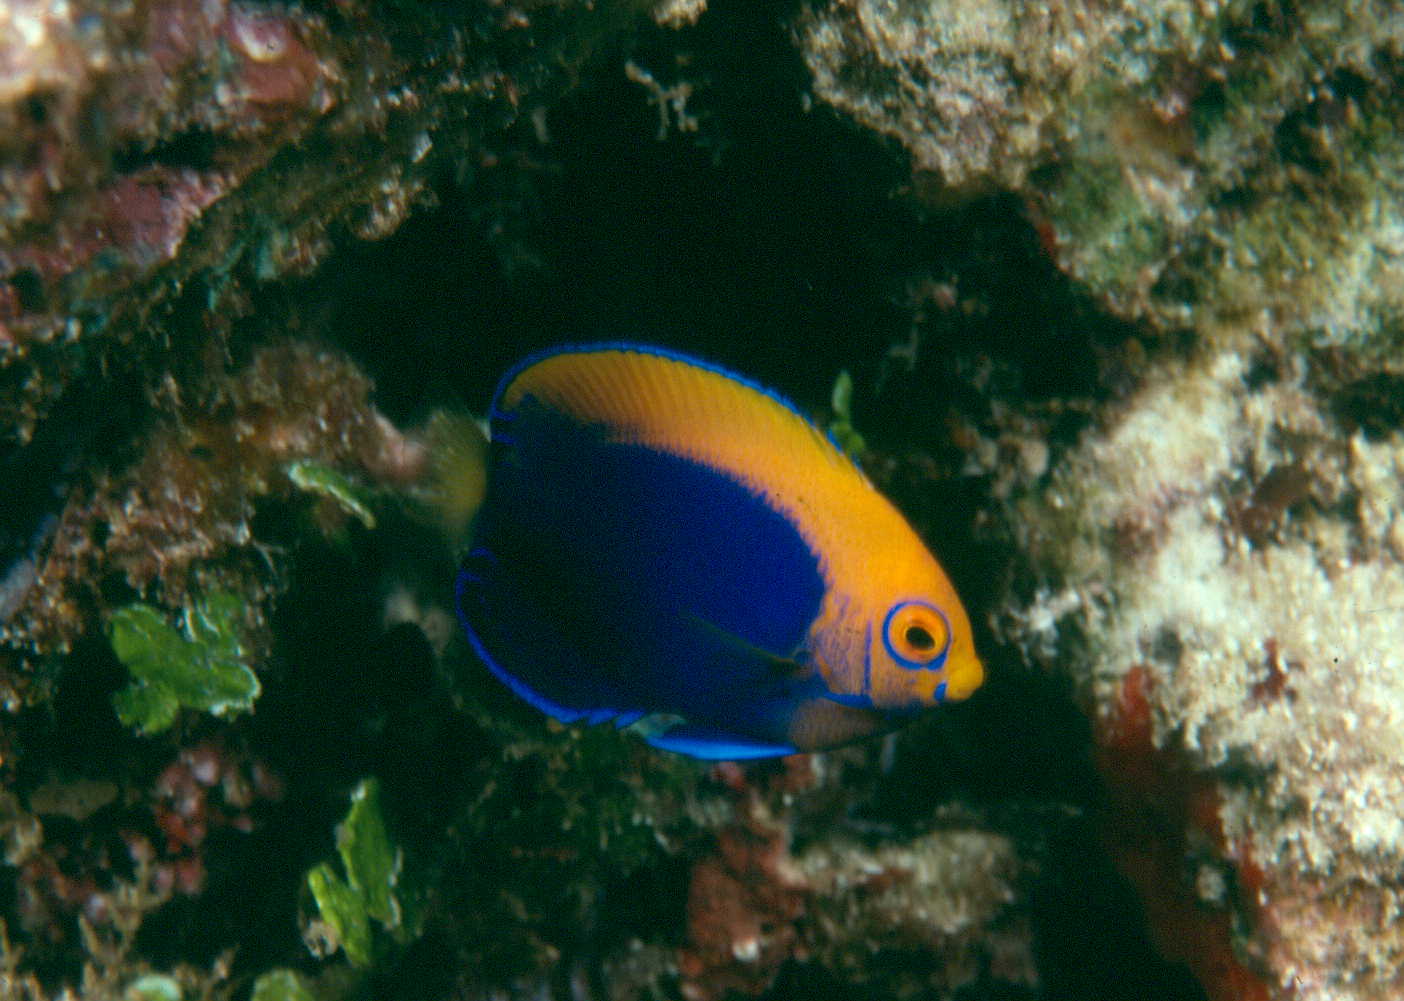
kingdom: Animalia
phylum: Chordata
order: Perciformes
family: Pomacanthidae
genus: Centropyge
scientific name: Centropyge acanthops
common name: African pygmy angelfish
